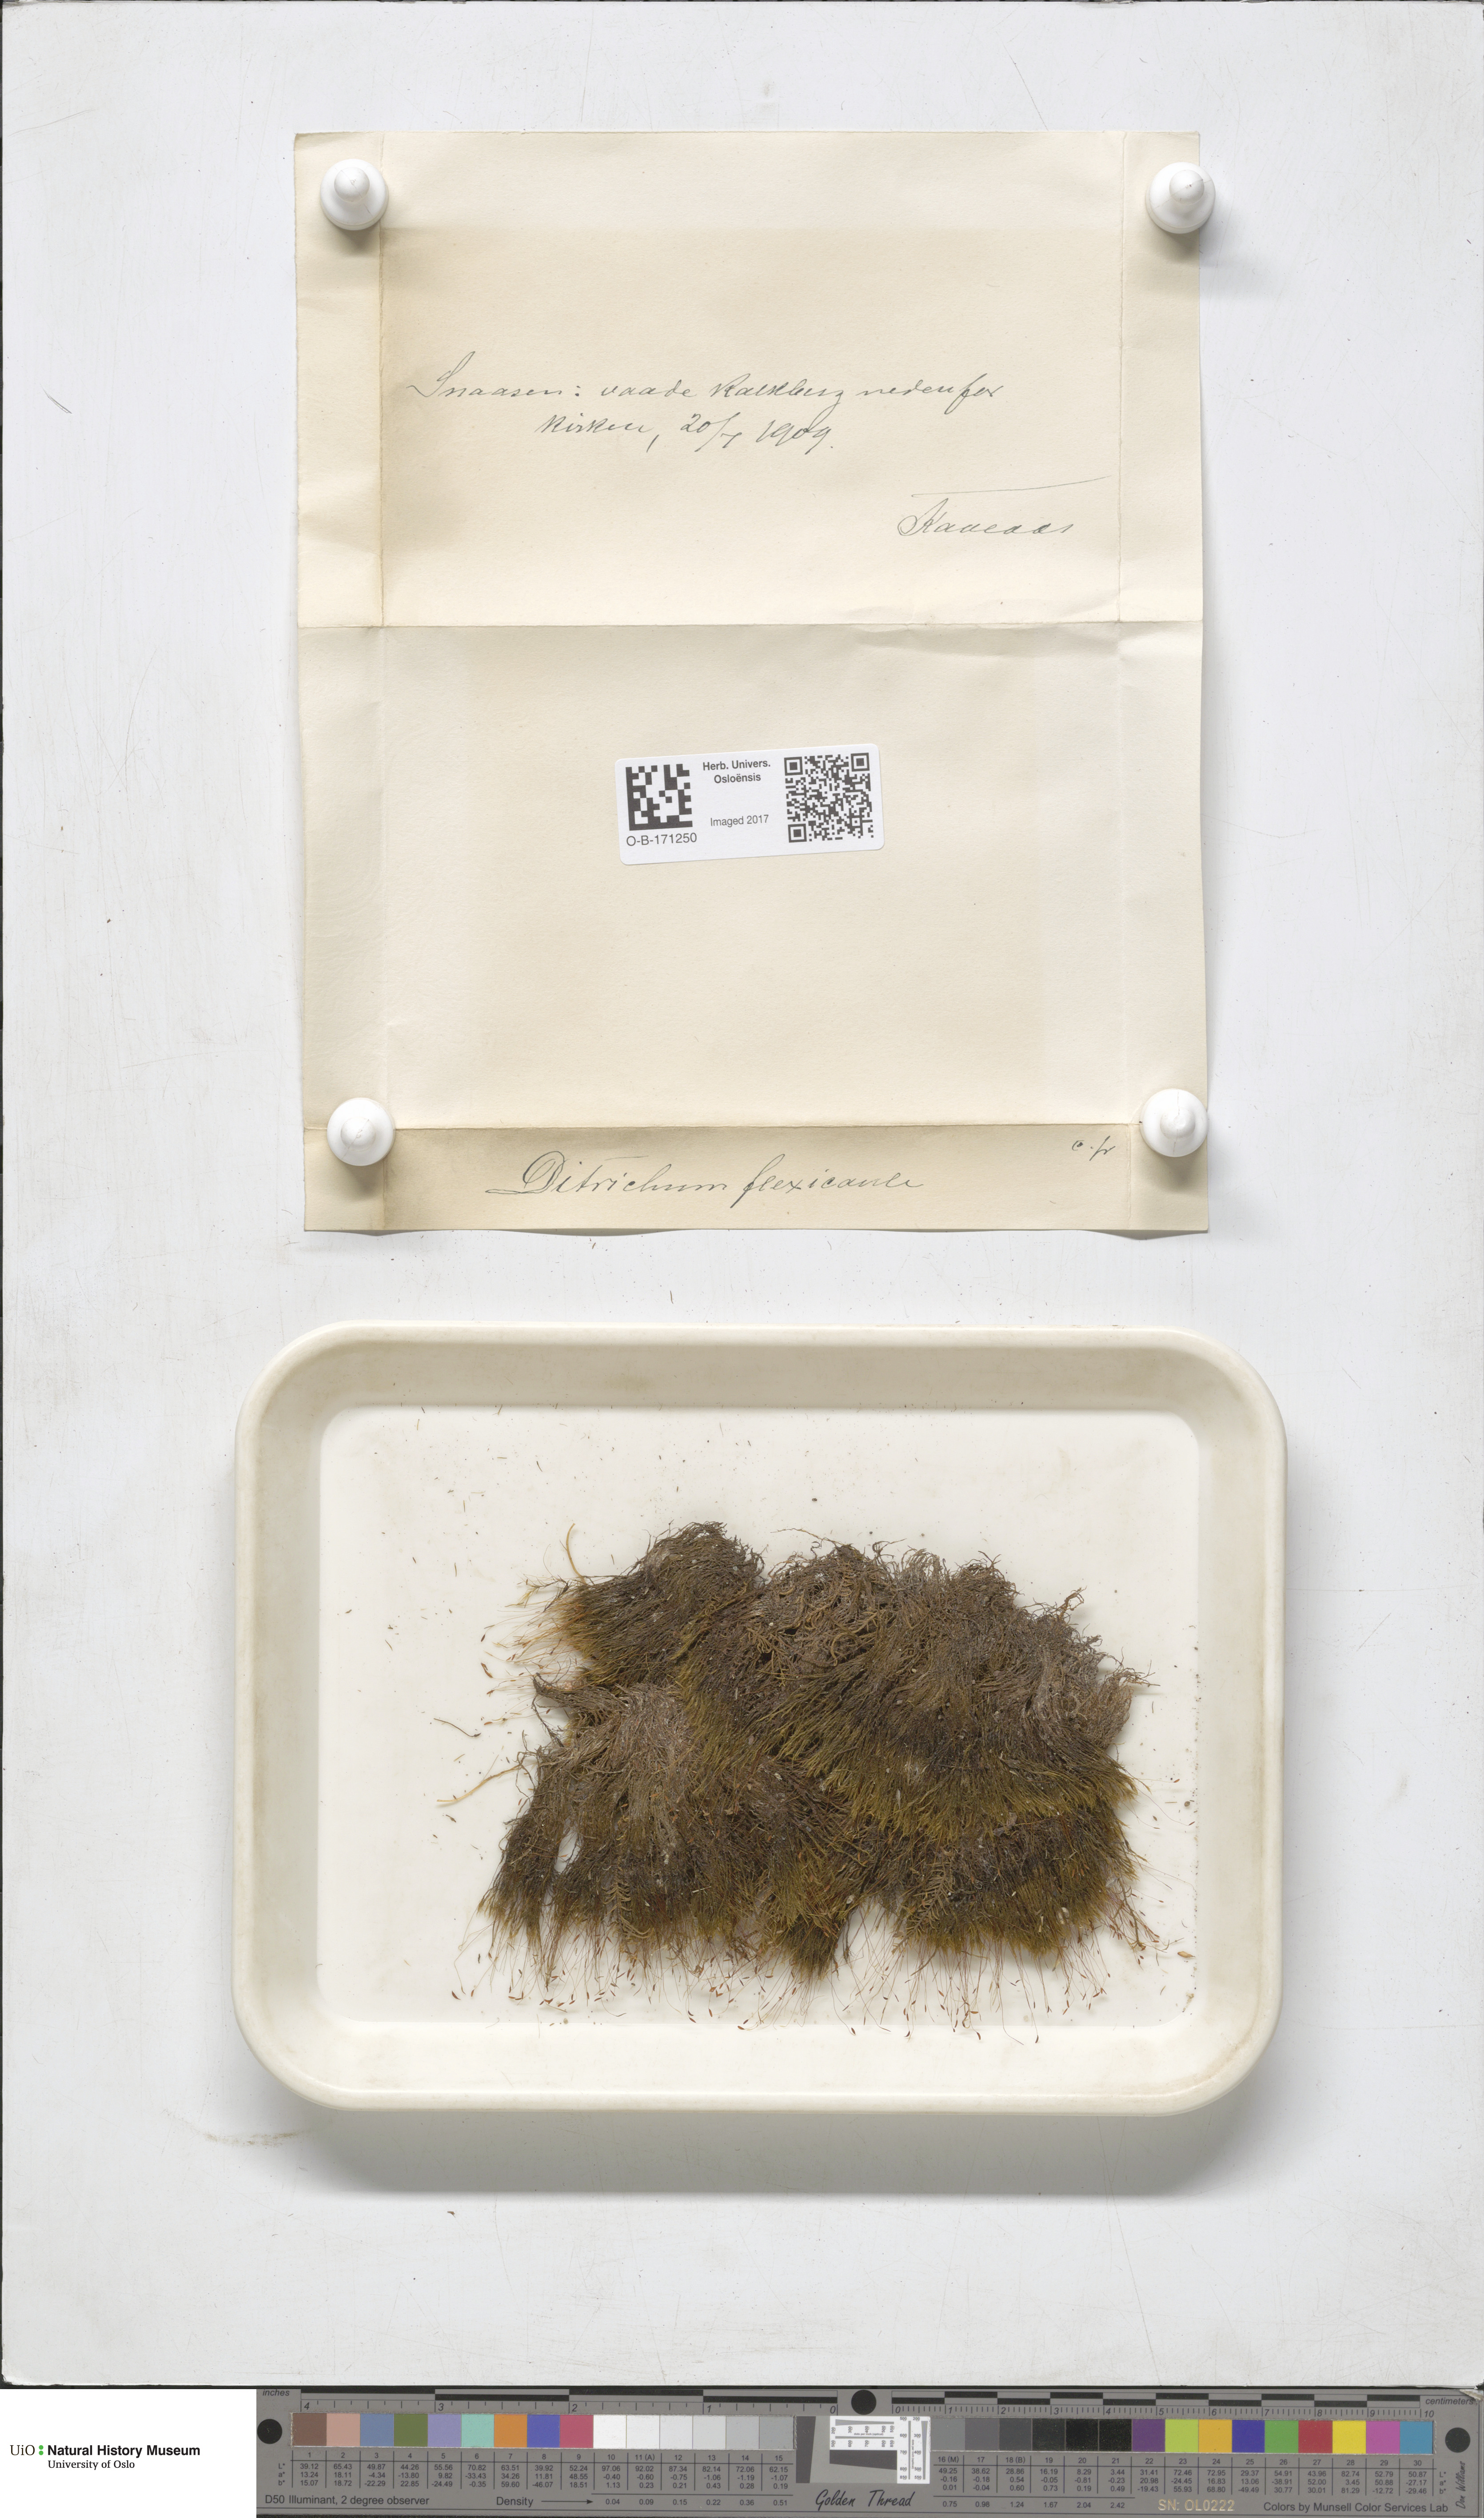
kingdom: Plantae
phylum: Bryophyta
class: Bryopsida
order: Scouleriales
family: Flexitrichaceae
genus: Flexitrichum
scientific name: Flexitrichum flexicaule
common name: Bendy ditrichum
